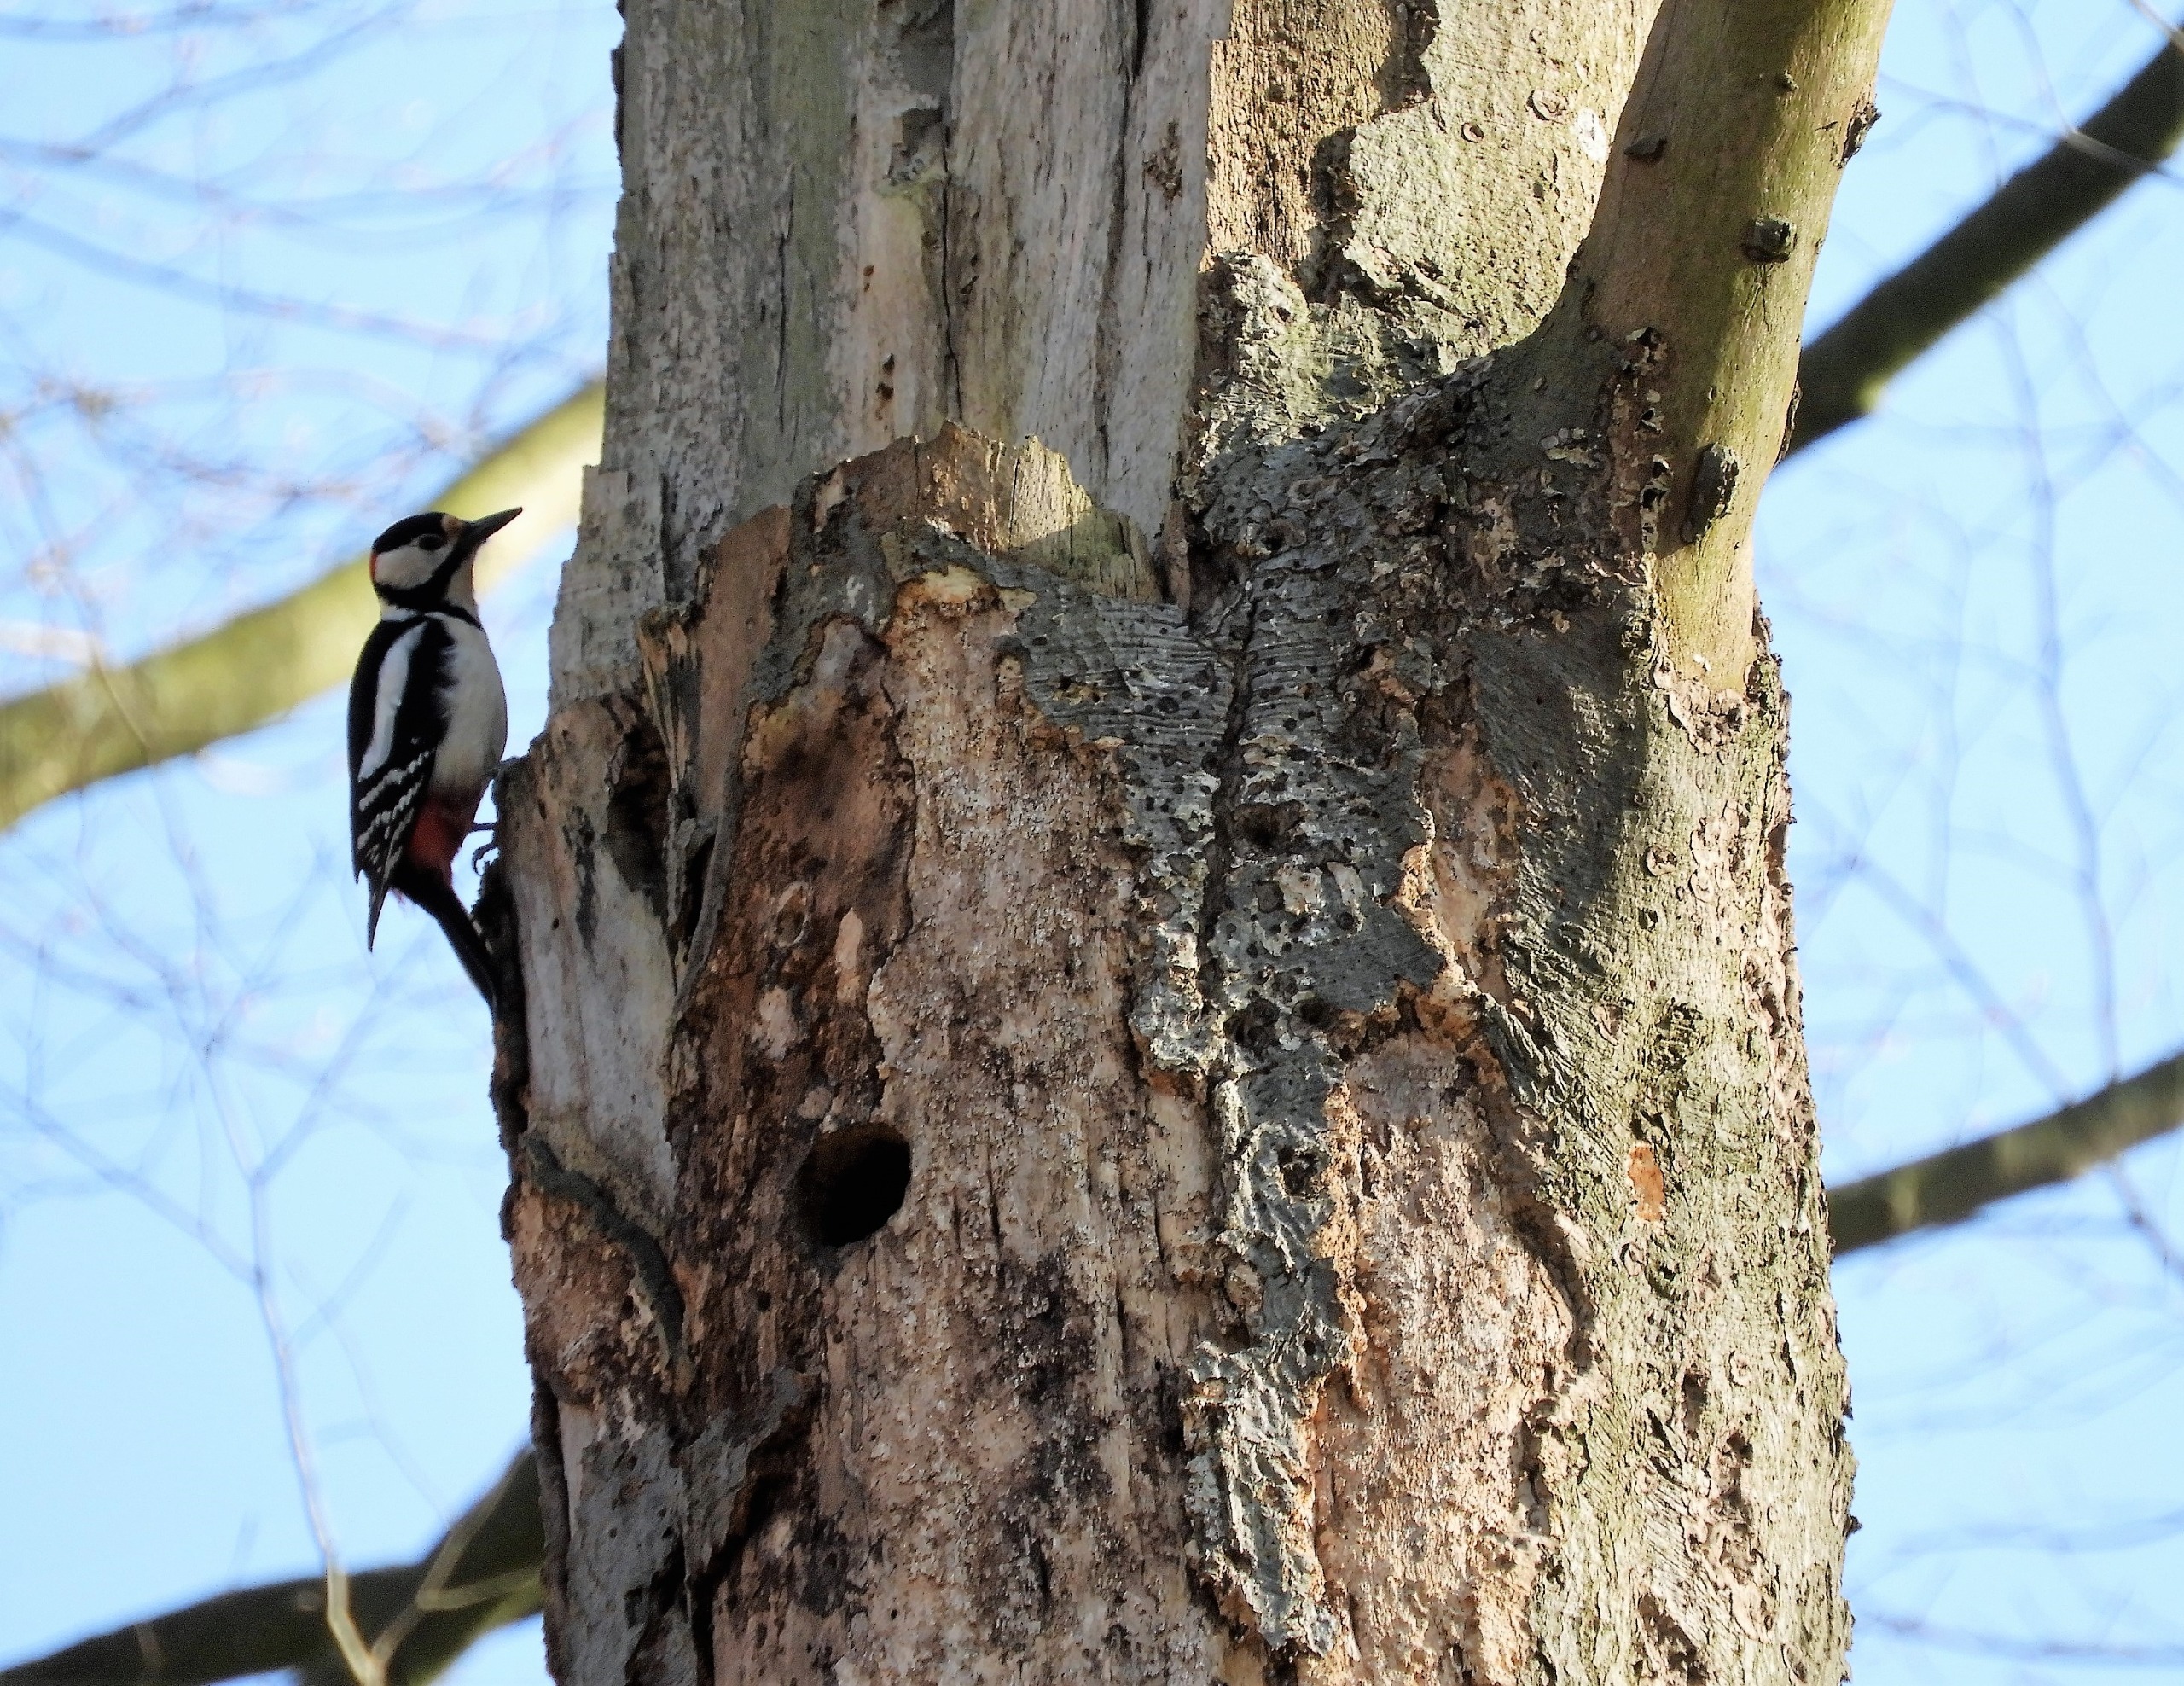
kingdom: Animalia
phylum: Chordata
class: Aves
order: Piciformes
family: Picidae
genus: Dendrocopos
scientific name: Dendrocopos major
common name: Stor flagspætte
